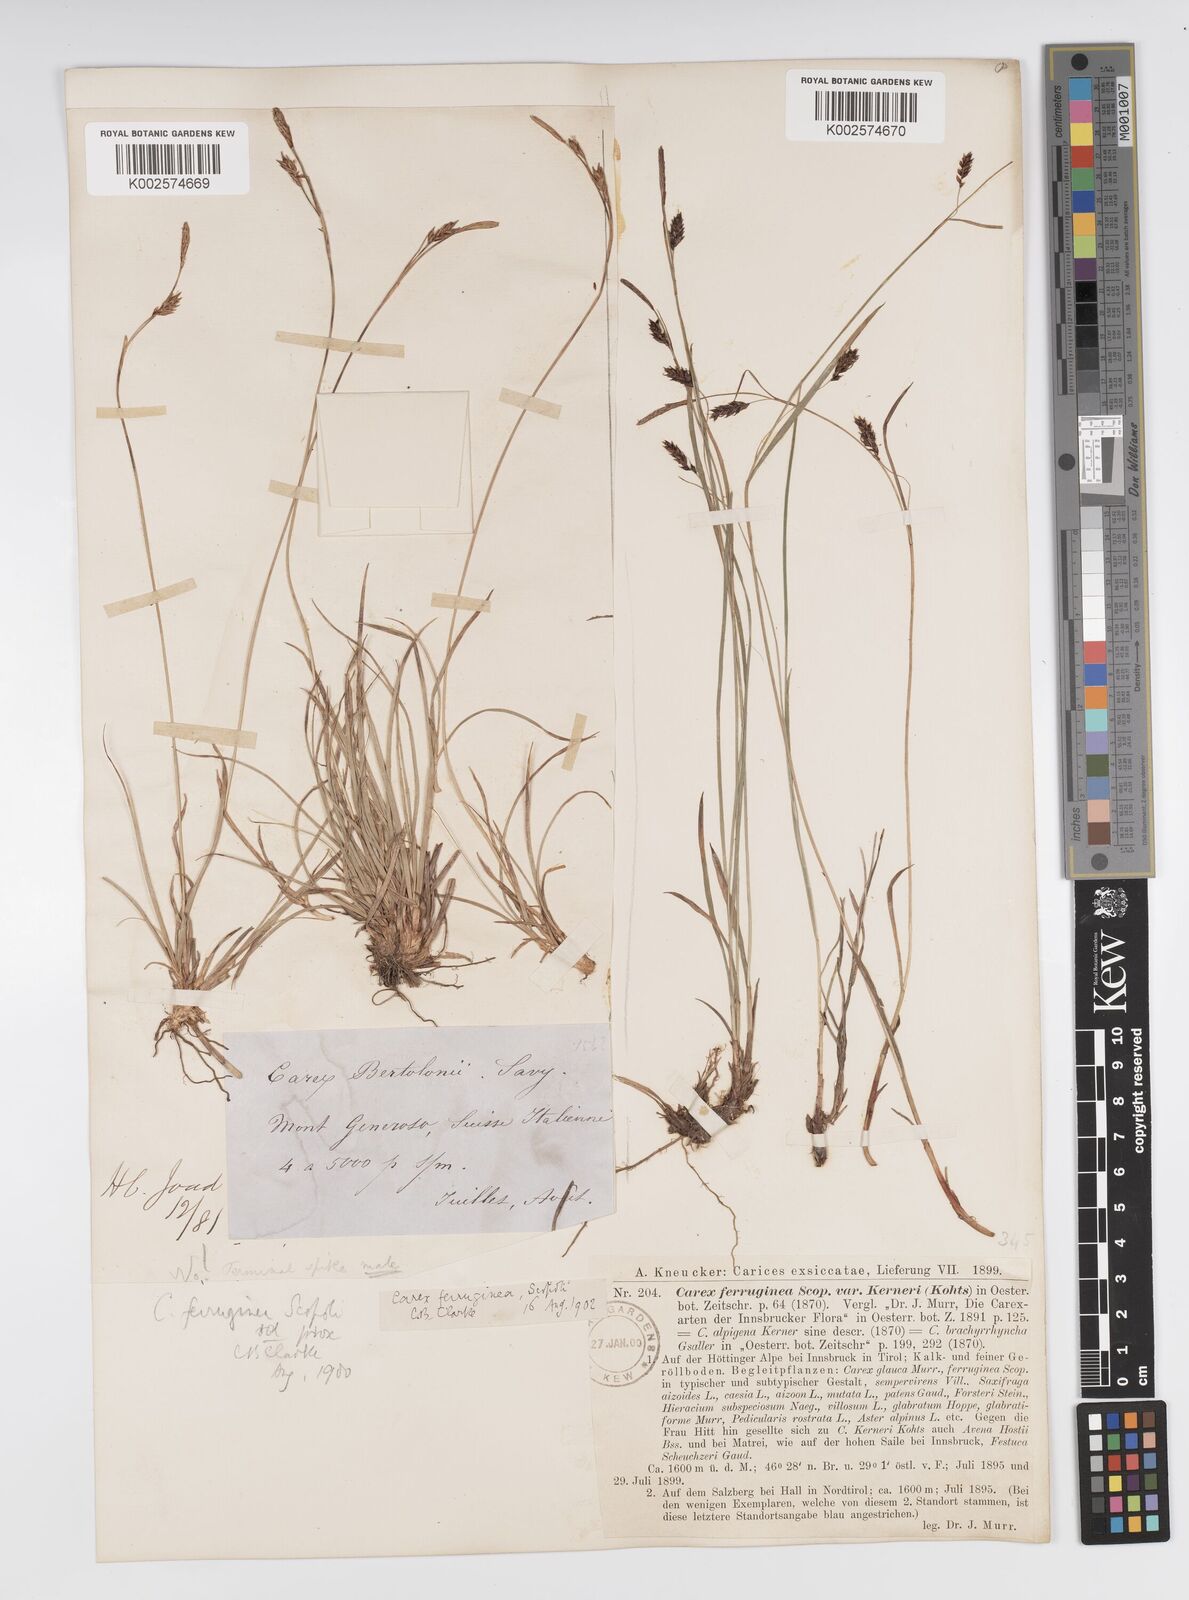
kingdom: Plantae
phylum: Tracheophyta
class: Liliopsida
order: Poales
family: Cyperaceae
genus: Carex
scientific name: Carex ferruginea
